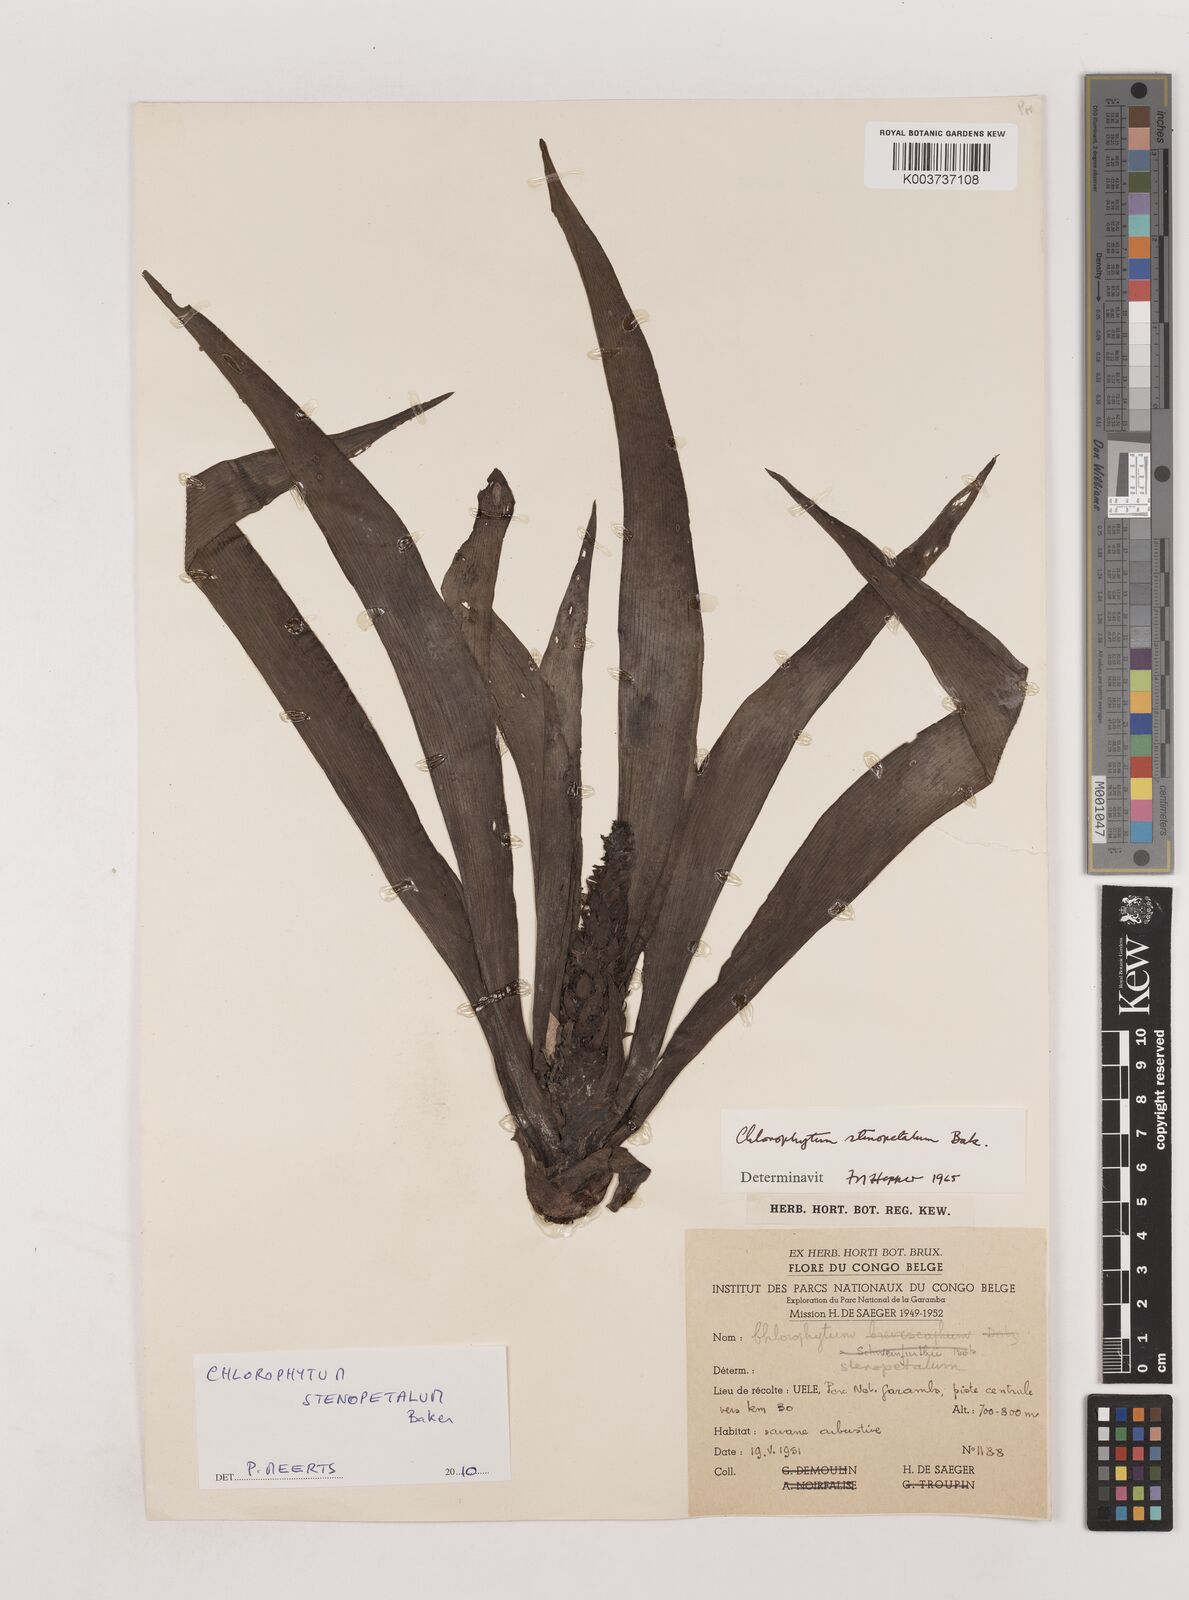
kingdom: Plantae
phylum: Tracheophyta
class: Liliopsida
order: Asparagales
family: Asparagaceae
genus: Chlorophytum
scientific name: Chlorophytum stenopetalum
